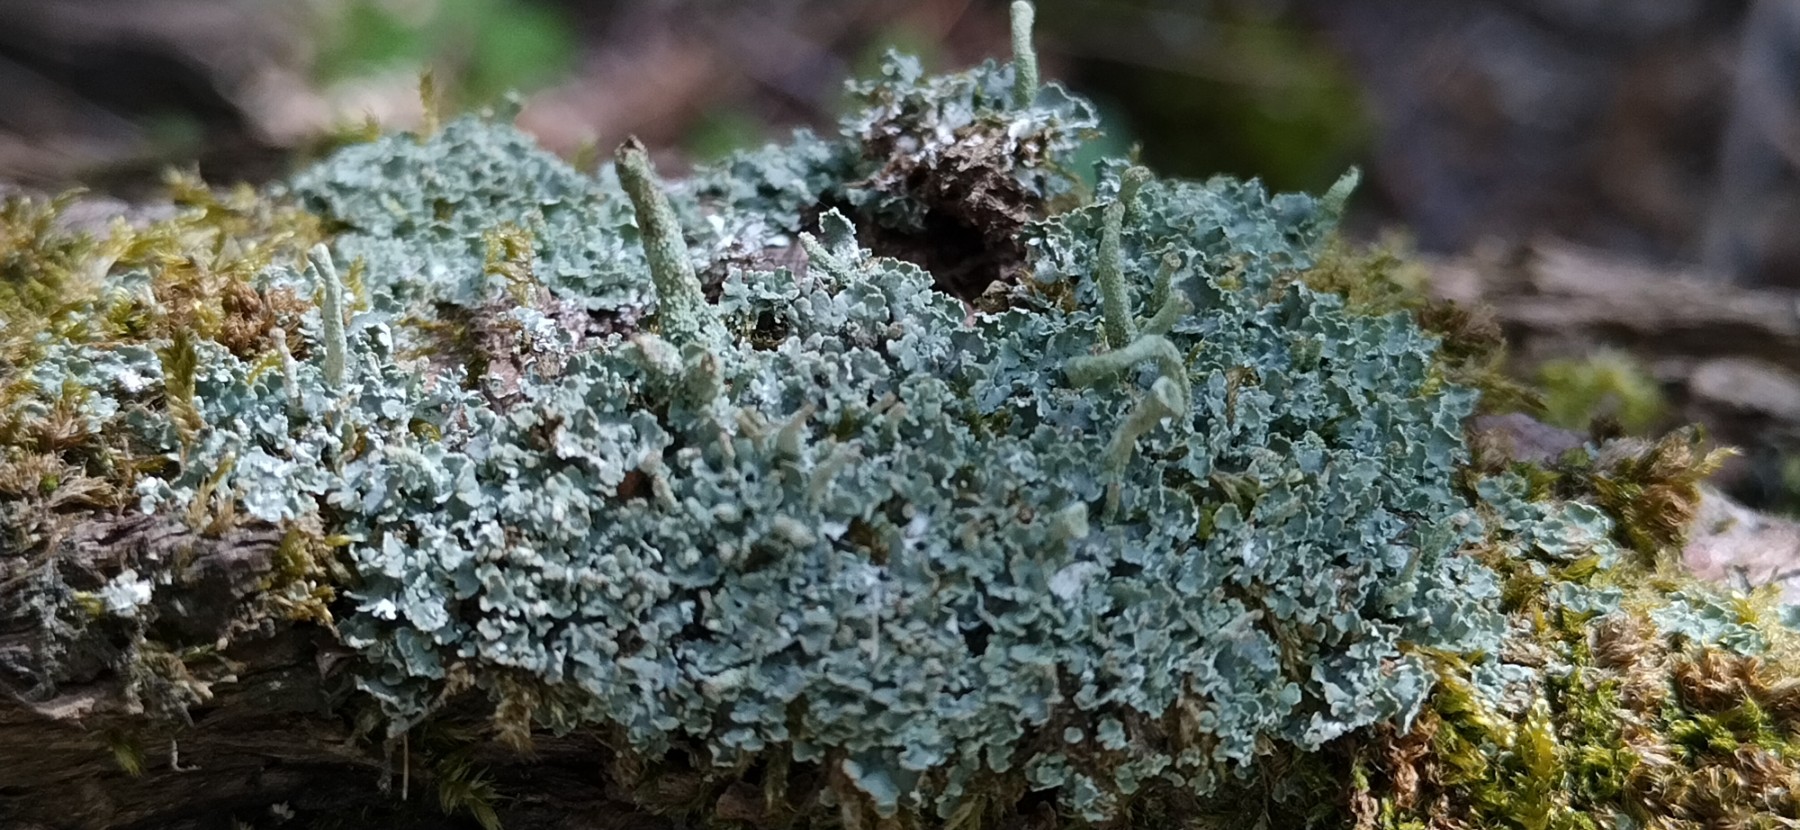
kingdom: Fungi
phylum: Ascomycota
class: Lecanoromycetes
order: Lecanorales
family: Cladoniaceae
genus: Cladonia
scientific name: Cladonia
